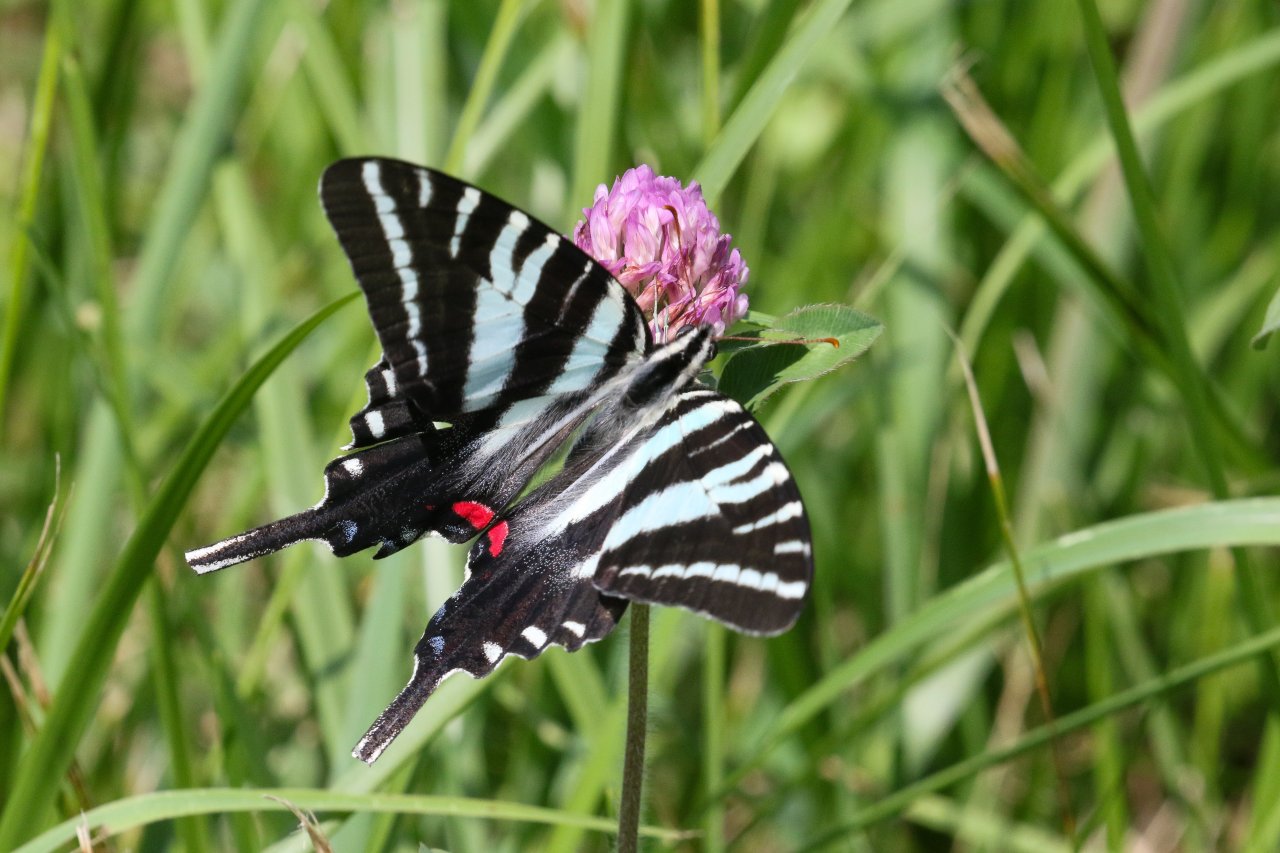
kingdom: Animalia
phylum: Arthropoda
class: Insecta
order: Lepidoptera
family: Papilionidae
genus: Protographium
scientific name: Protographium marcellus
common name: Zebra Swallowtail
